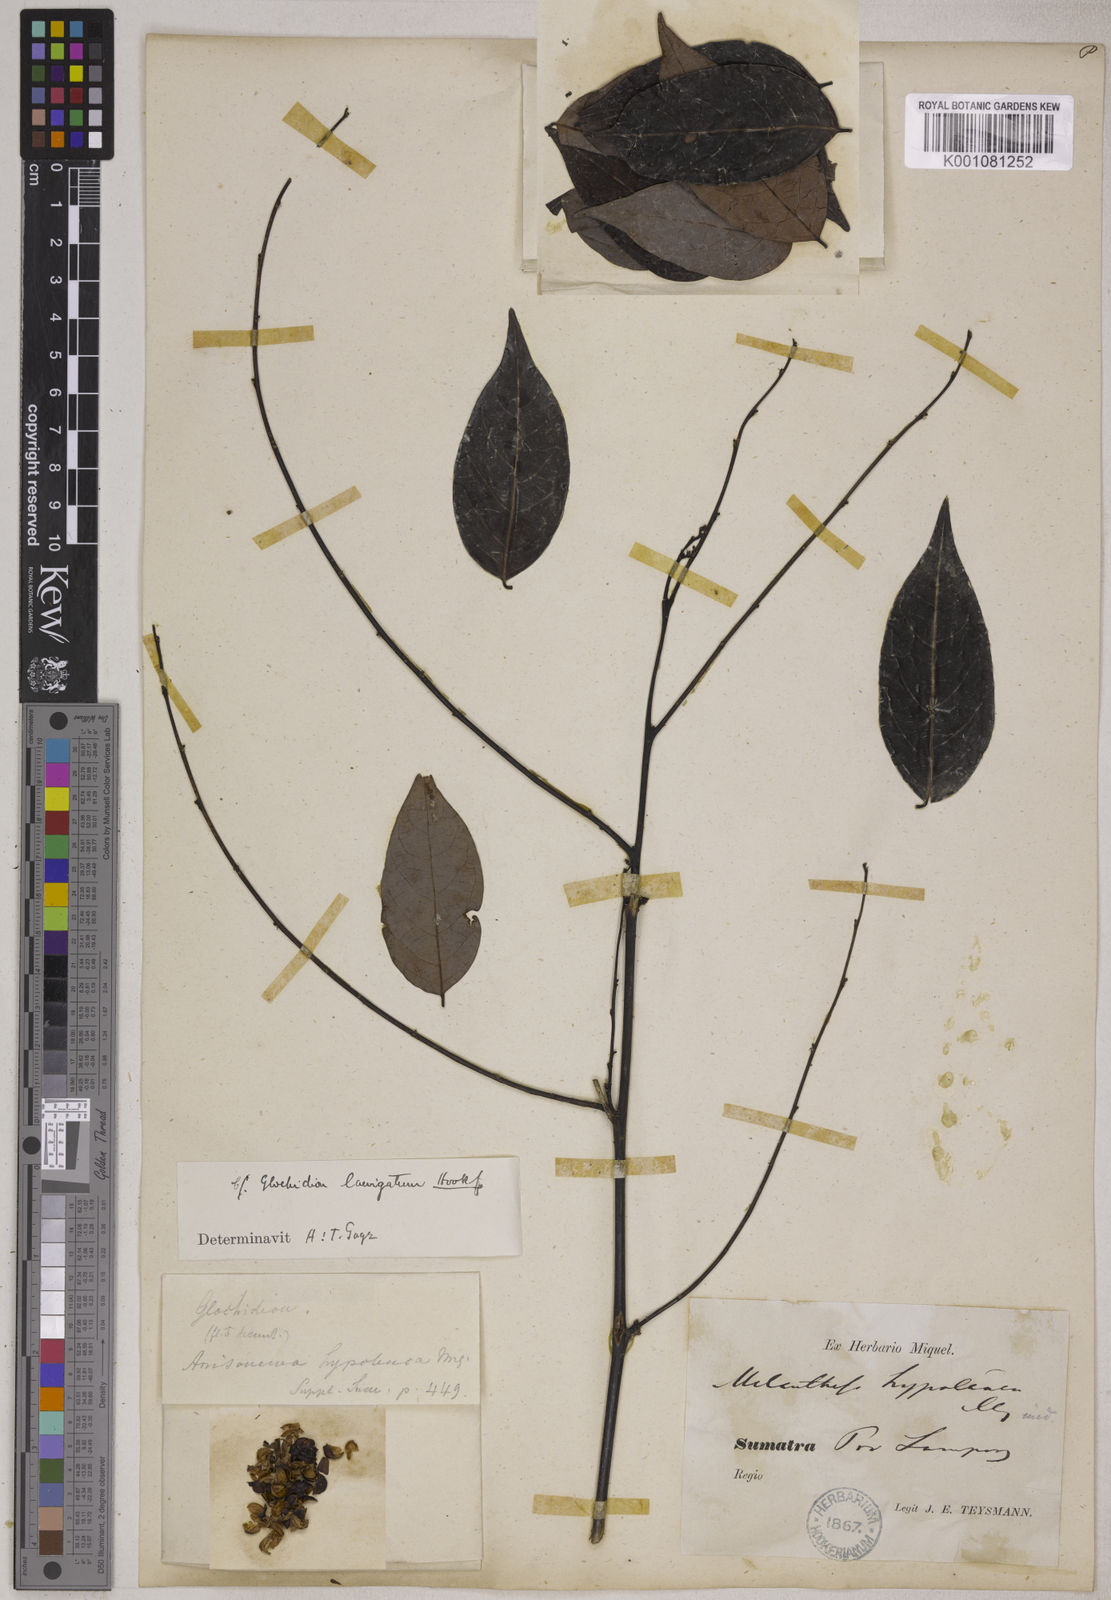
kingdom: Plantae
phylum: Tracheophyta
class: Magnoliopsida
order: Malpighiales
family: Phyllanthaceae
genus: Glochidion
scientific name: Glochidion lutescens
